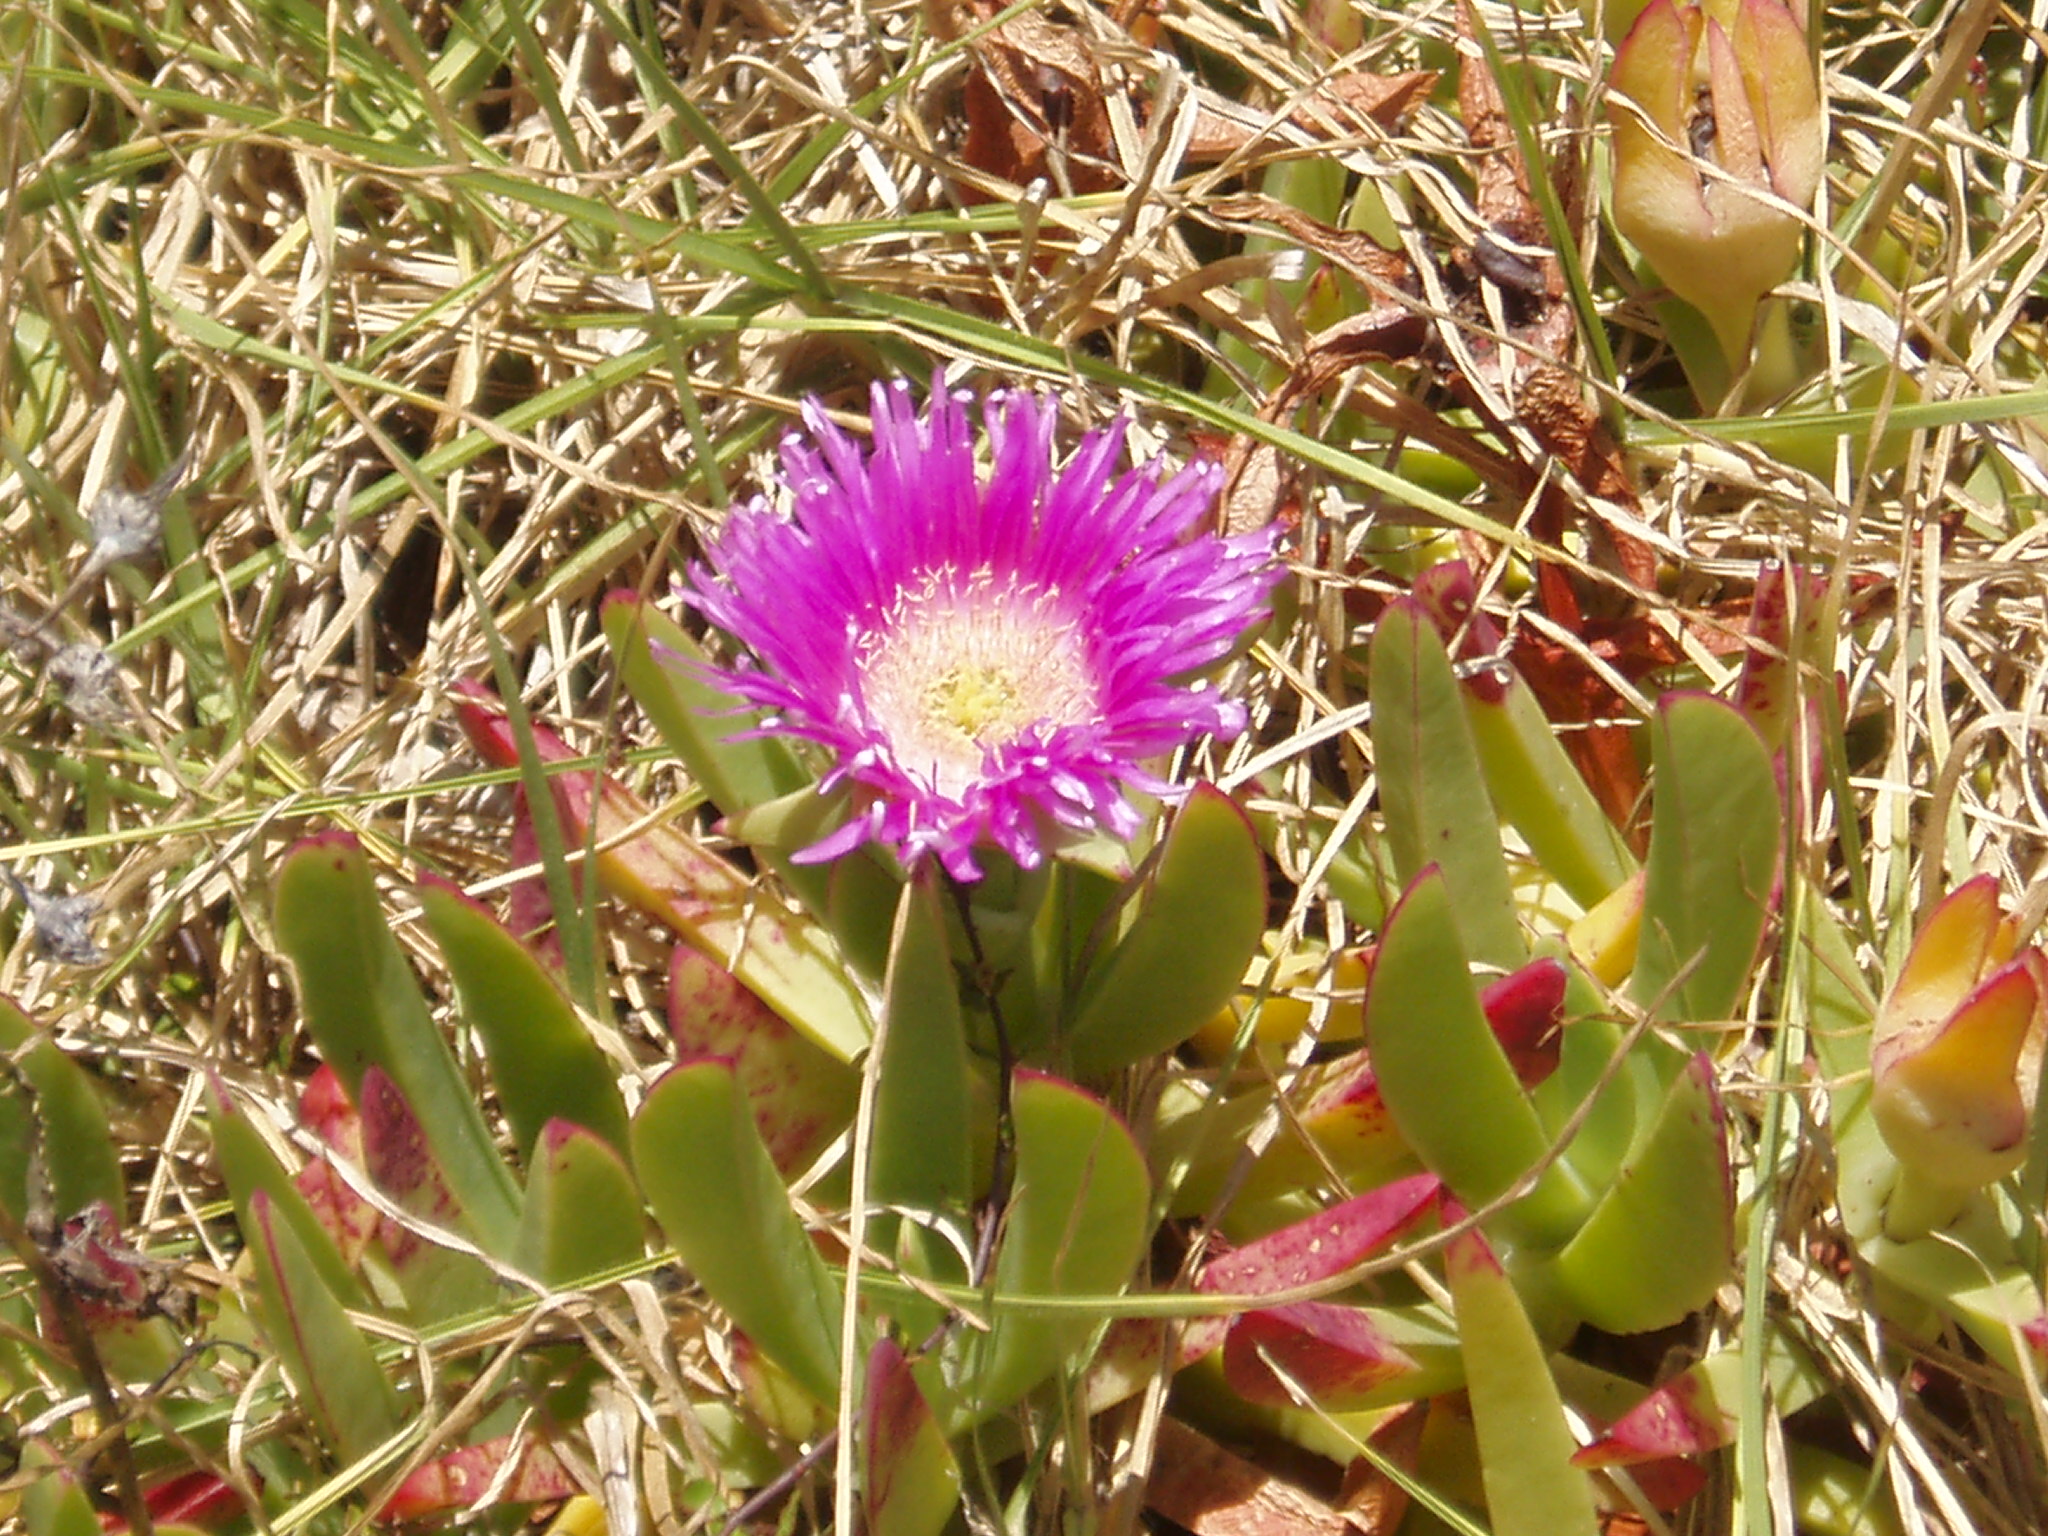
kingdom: Plantae
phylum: Tracheophyta
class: Magnoliopsida
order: Caryophyllales
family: Aizoaceae
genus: Carpobrotus
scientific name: Carpobrotus chilensis
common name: Sea fig
